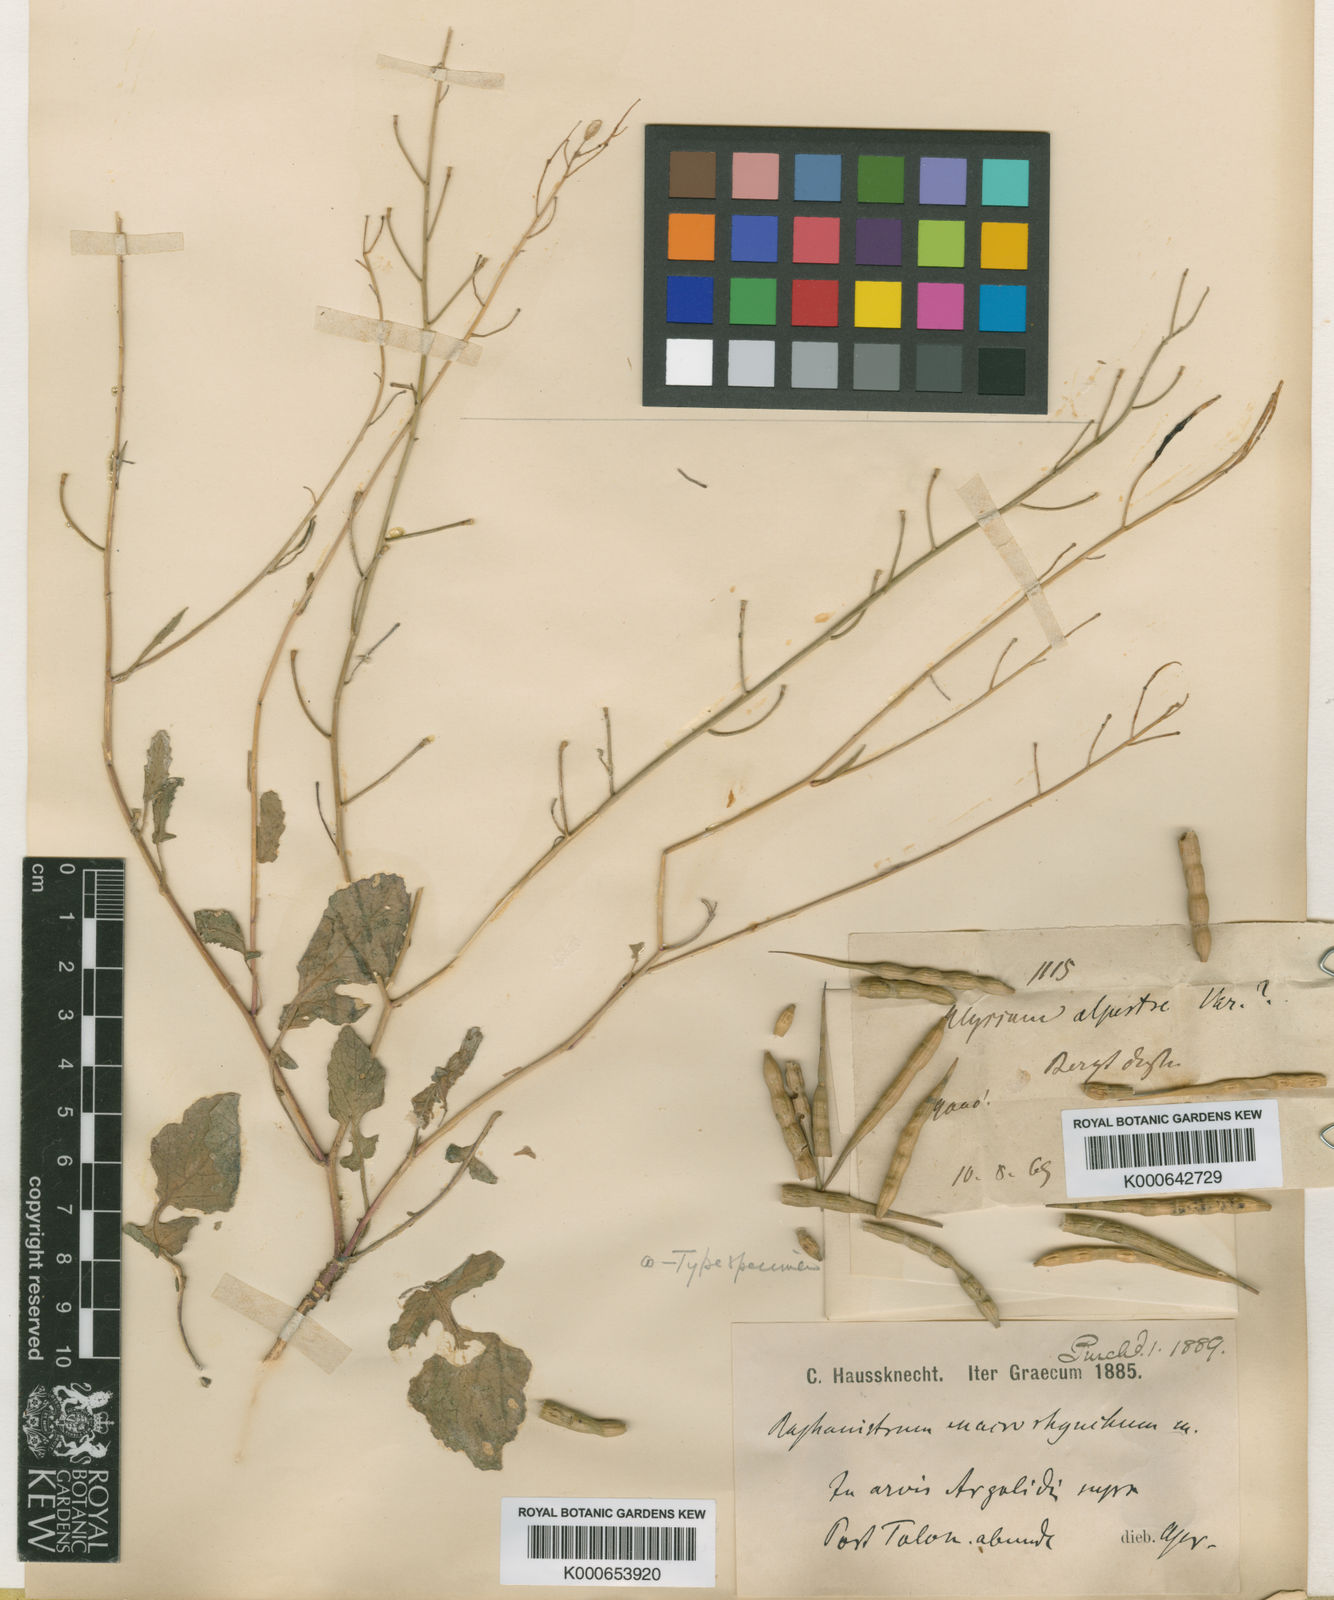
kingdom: Plantae
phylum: Tracheophyta
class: Magnoliopsida
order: Brassicales
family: Brassicaceae
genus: Raphanus
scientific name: Raphanus
